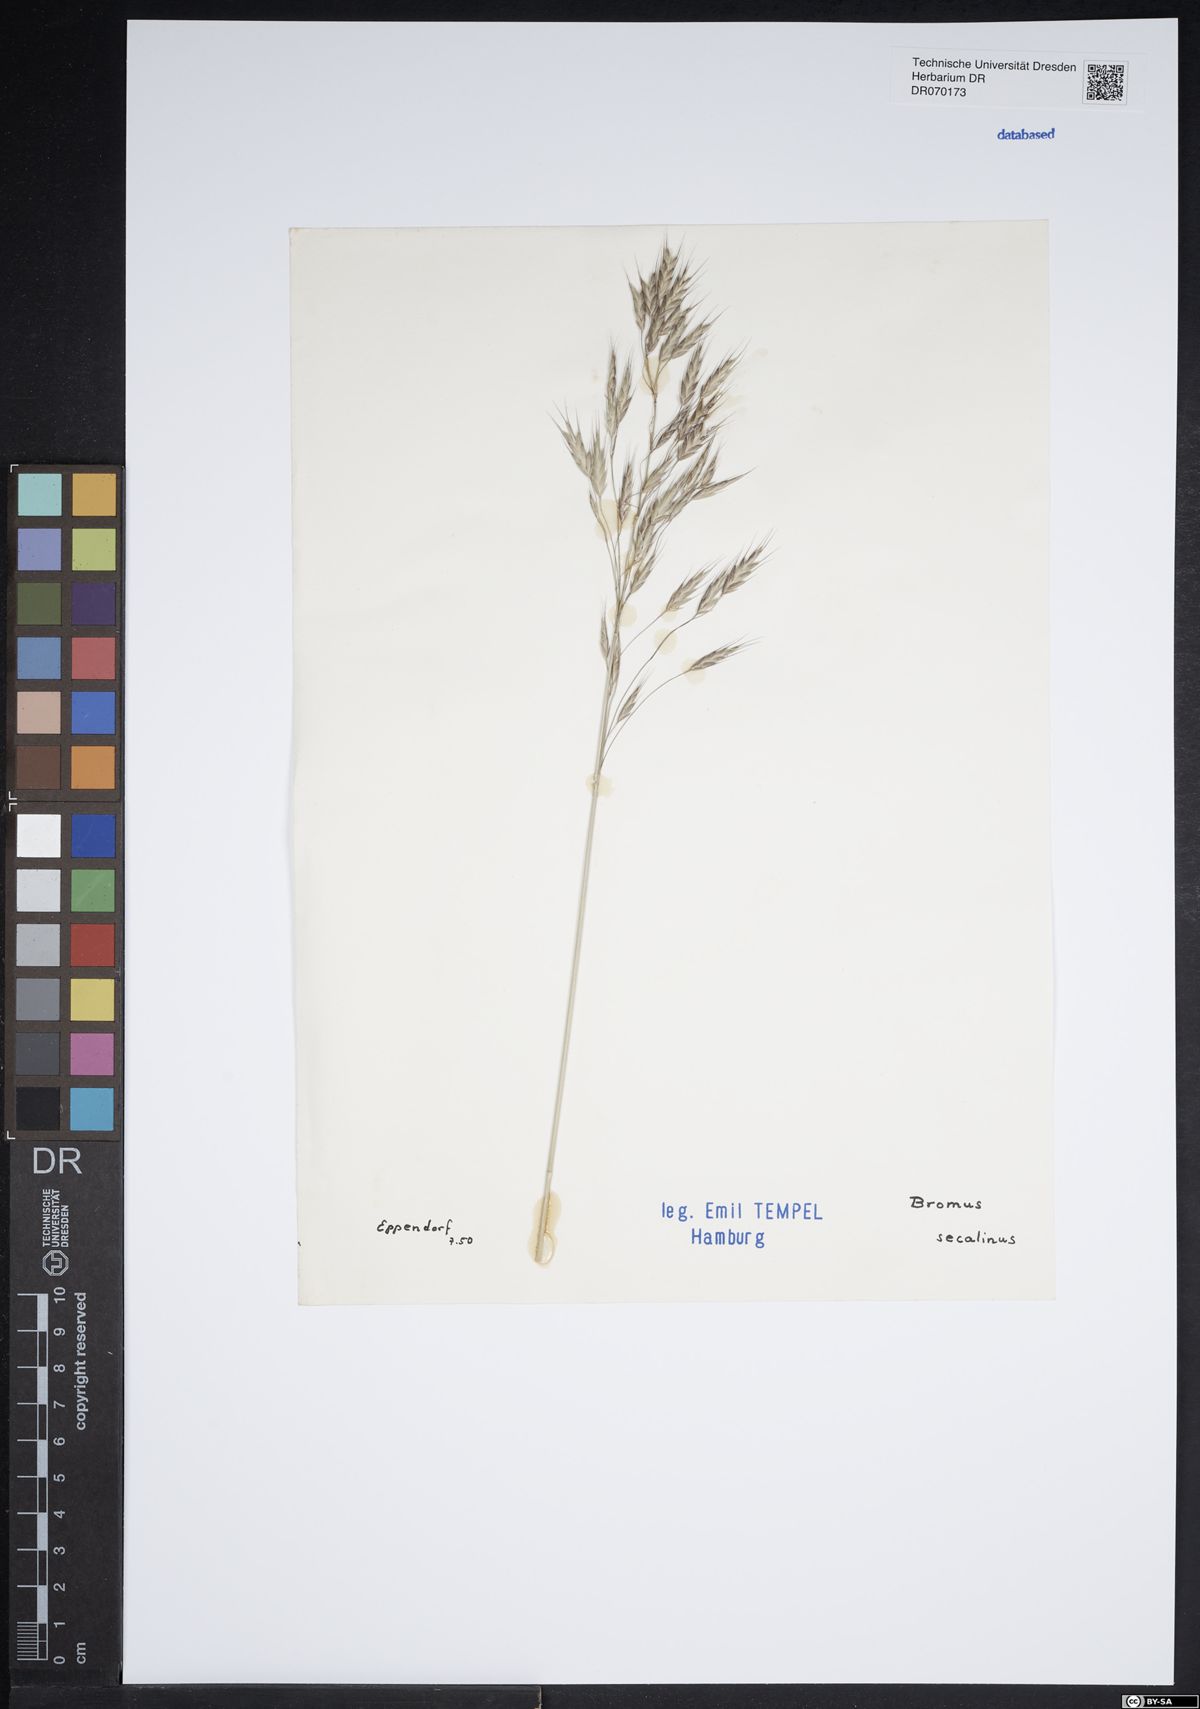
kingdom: Plantae
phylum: Tracheophyta
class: Liliopsida
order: Poales
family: Poaceae
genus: Bromus
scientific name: Bromus secalinus
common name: Rye brome
